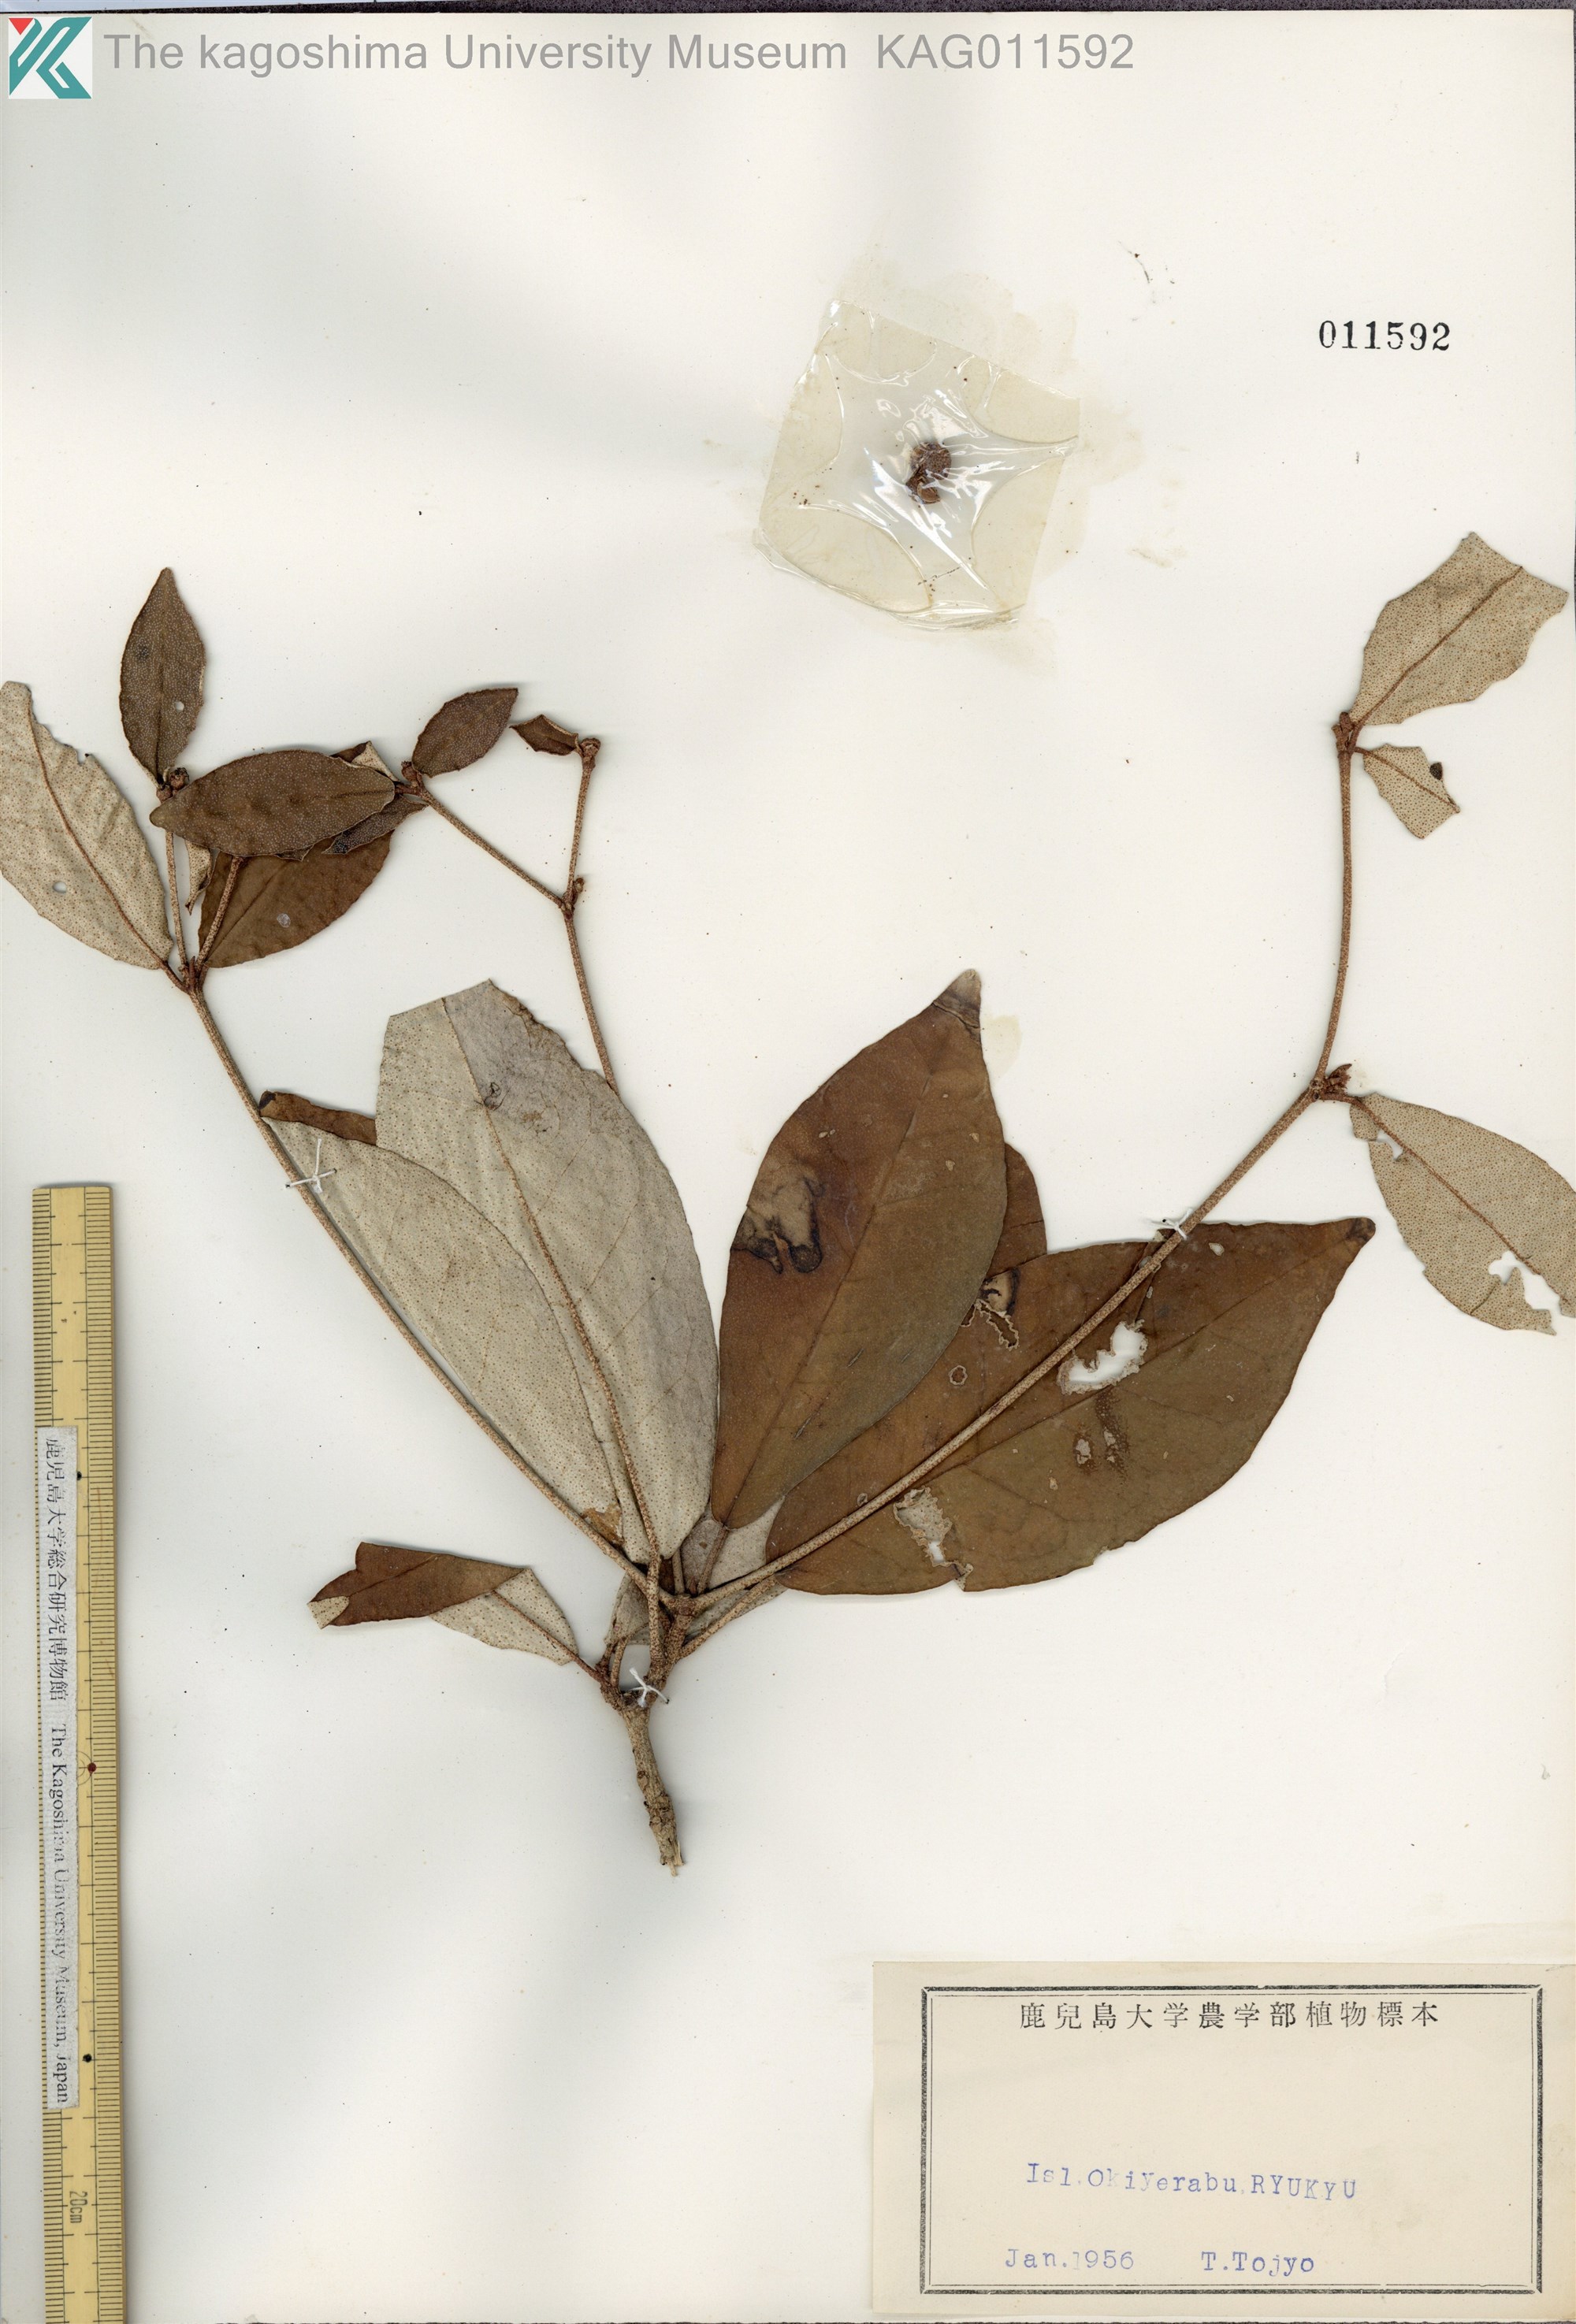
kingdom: Plantae
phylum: Tracheophyta
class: Magnoliopsida
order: Malpighiales
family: Euphorbiaceae
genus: Croton
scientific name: Croton cascarilloides
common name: グミモドキ
